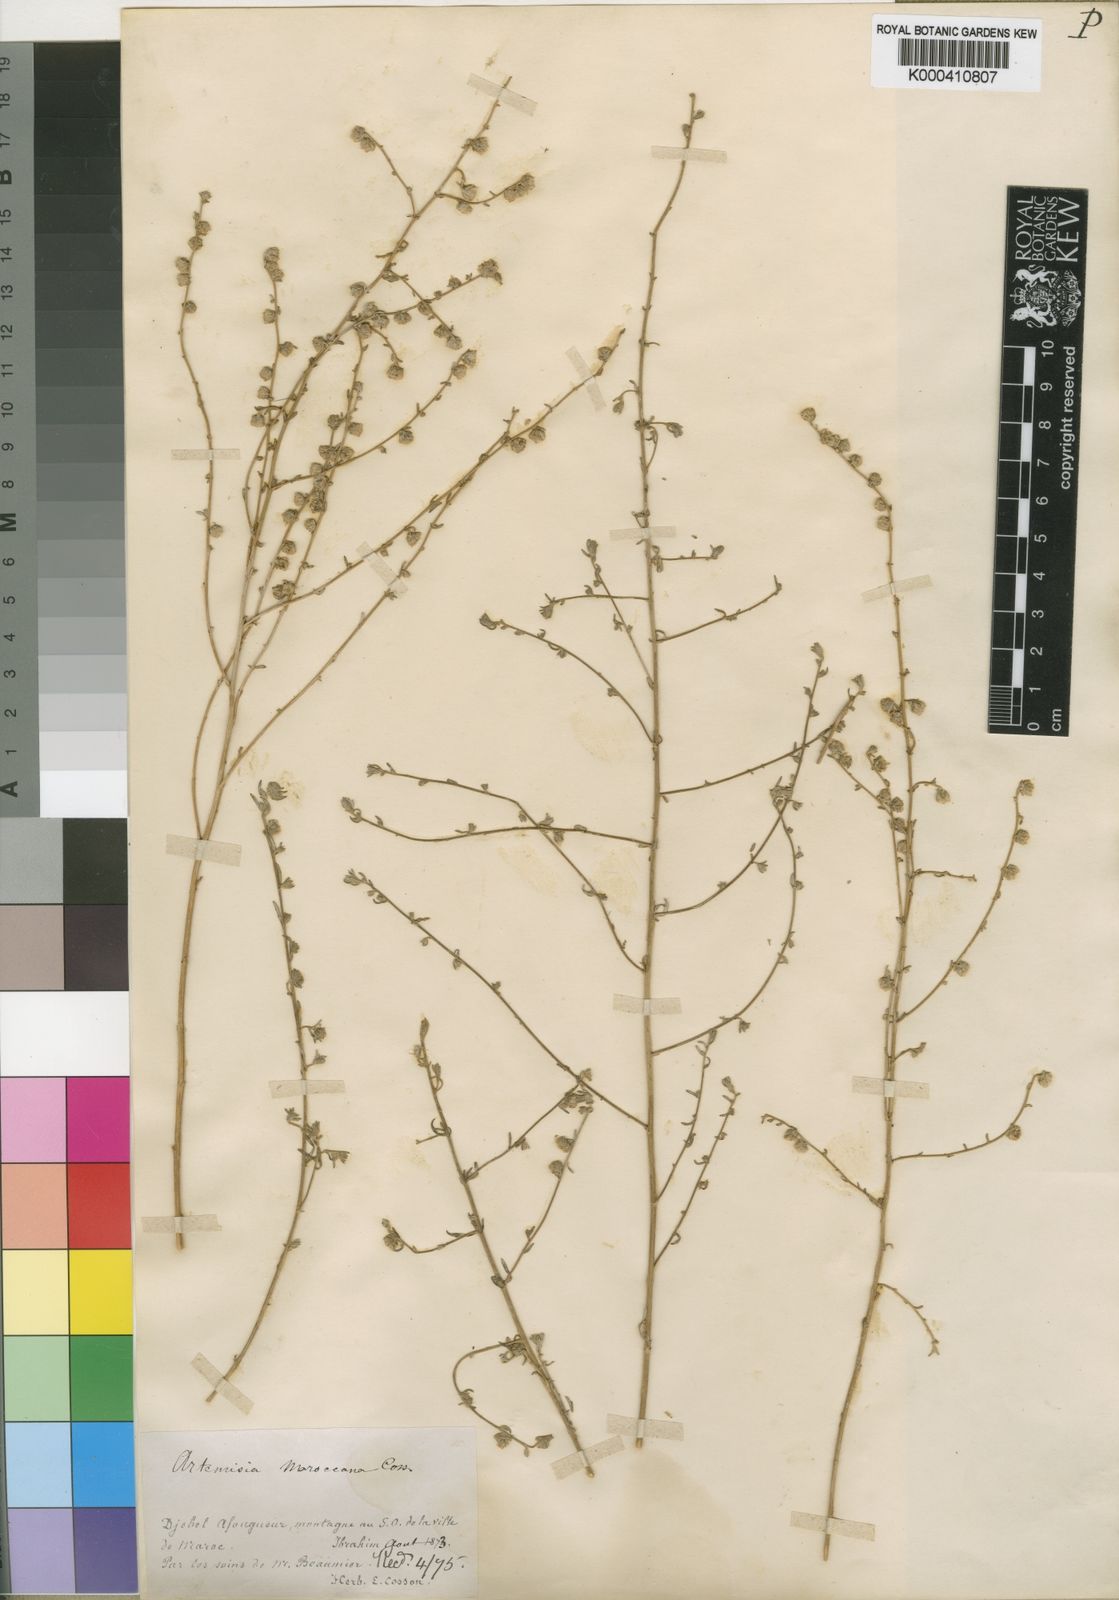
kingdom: Plantae
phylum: Tracheophyta
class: Magnoliopsida
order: Asterales
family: Asteraceae
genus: Artemisia
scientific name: Artemisia maroccana
